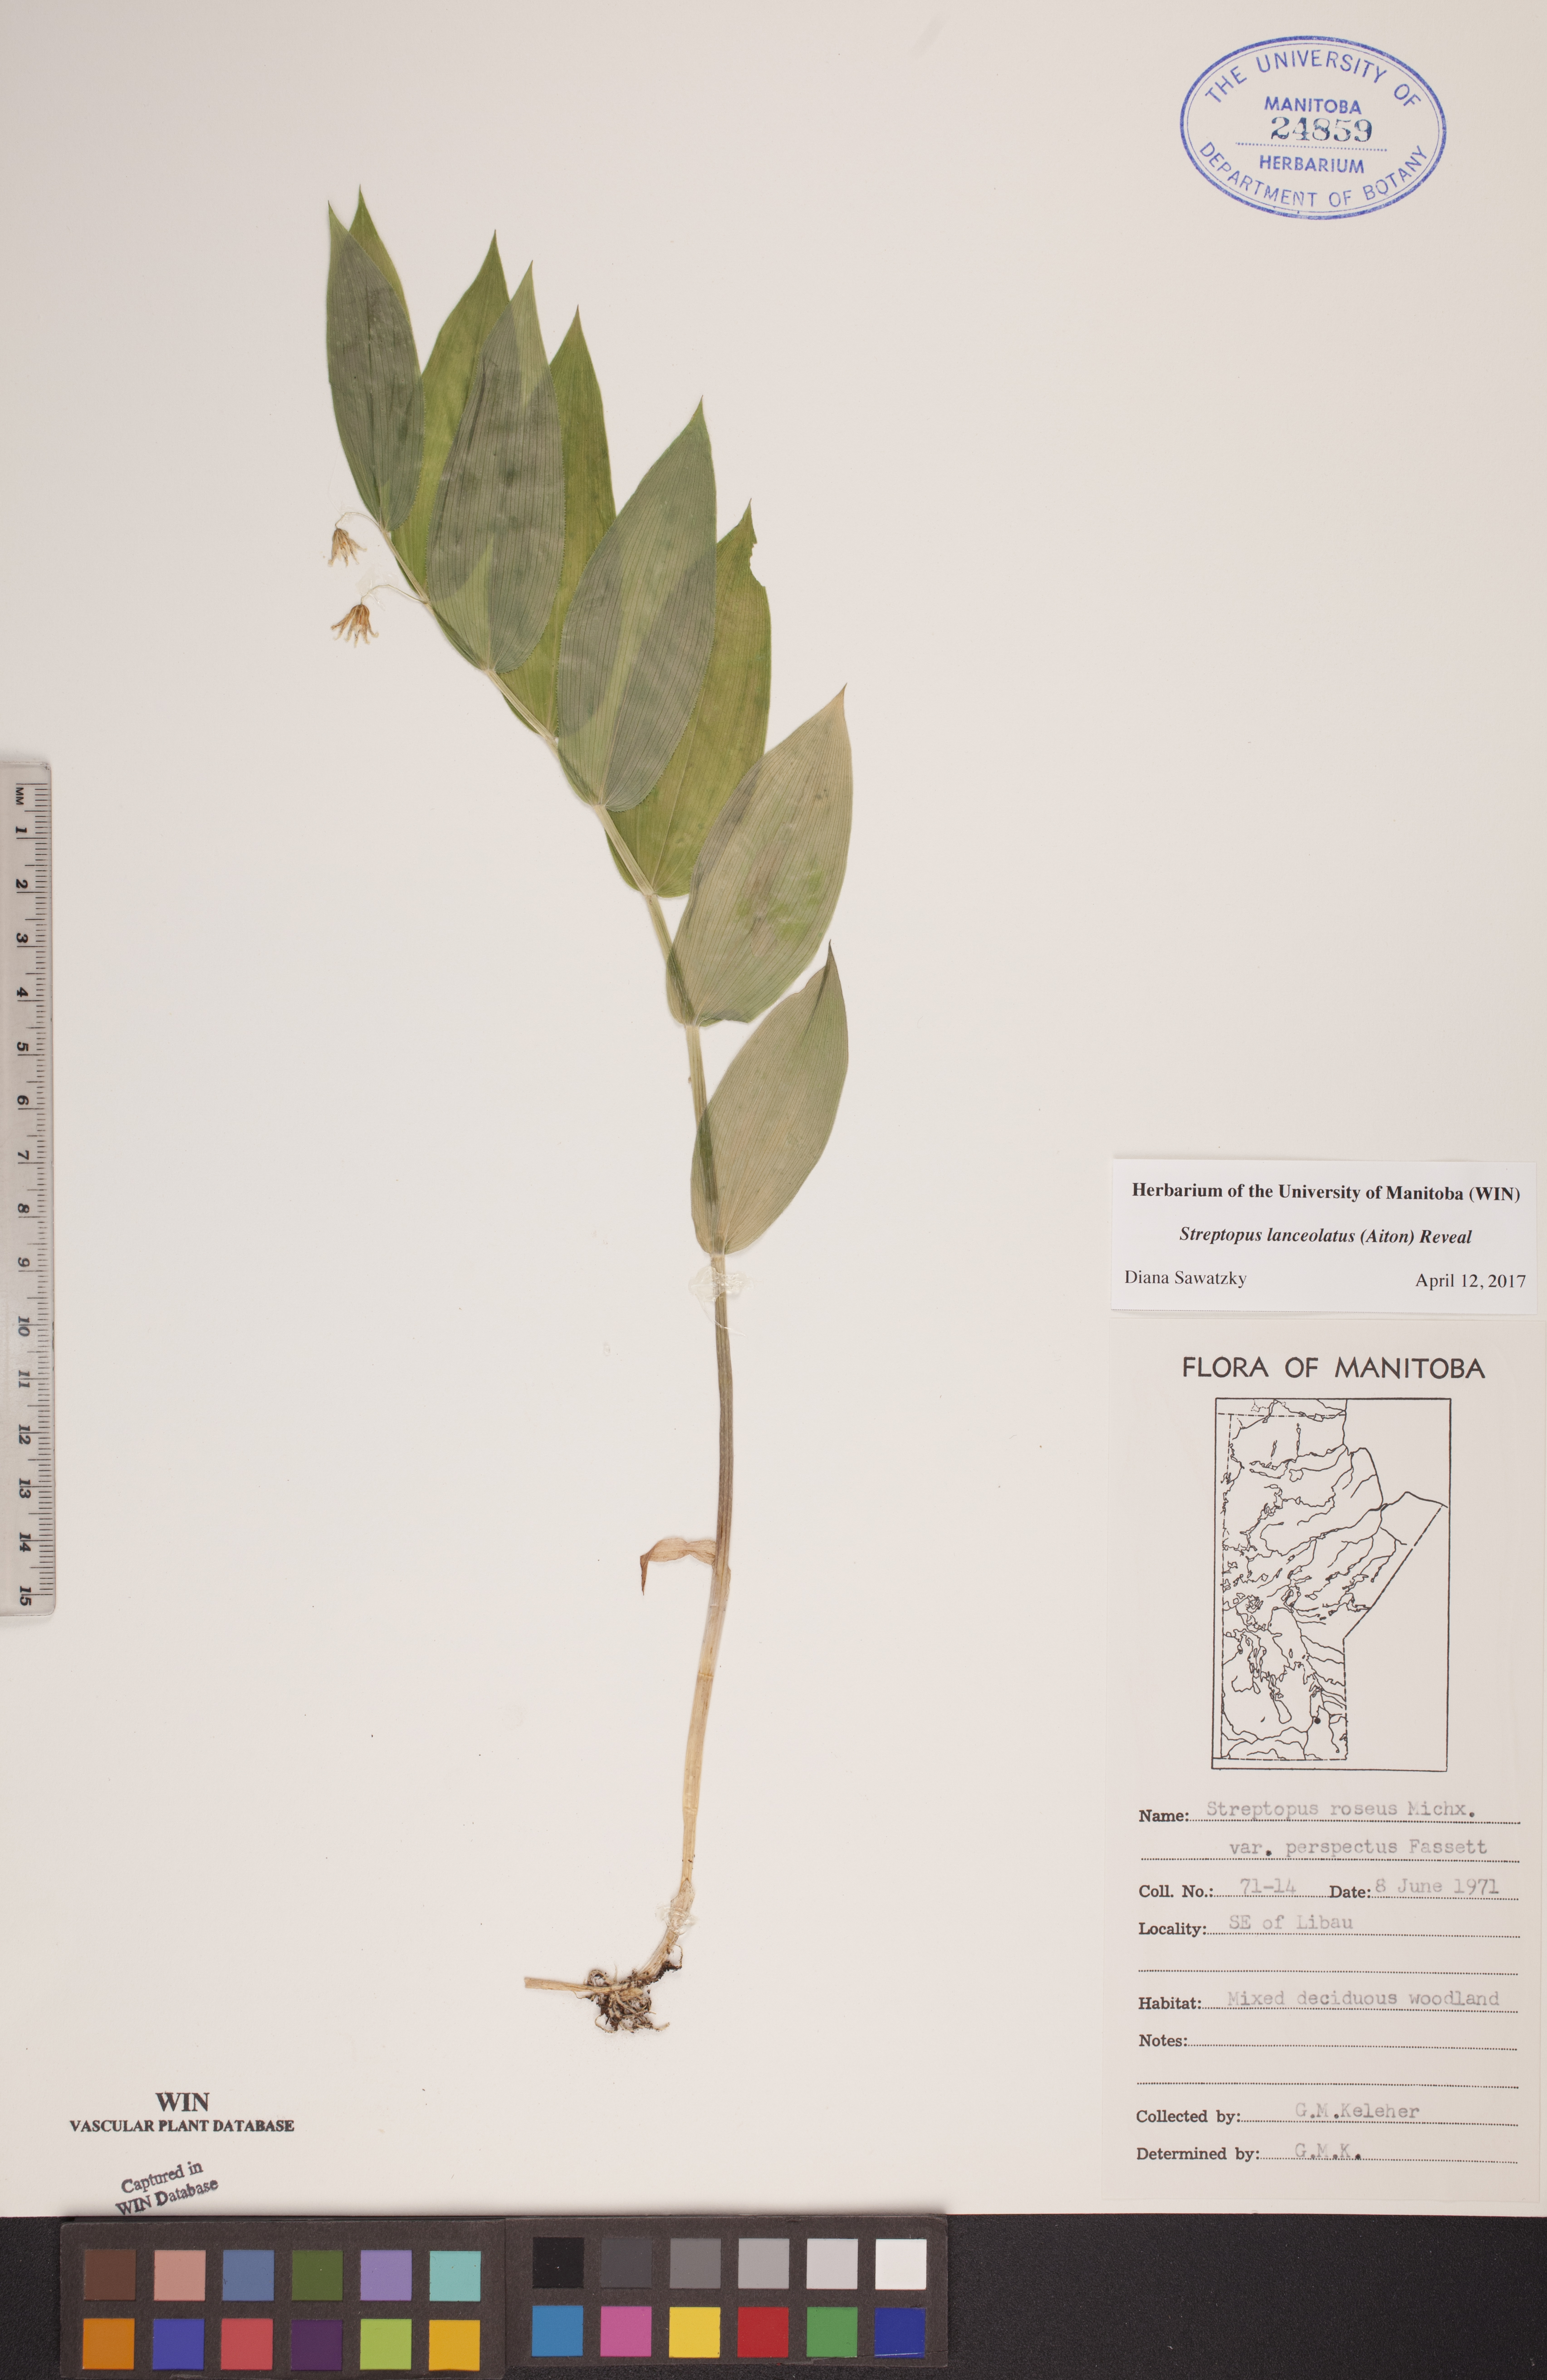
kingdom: Plantae
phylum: Tracheophyta
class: Liliopsida
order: Liliales
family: Liliaceae
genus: Streptopus
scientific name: Streptopus lanceolatus
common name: Rose mandarin
